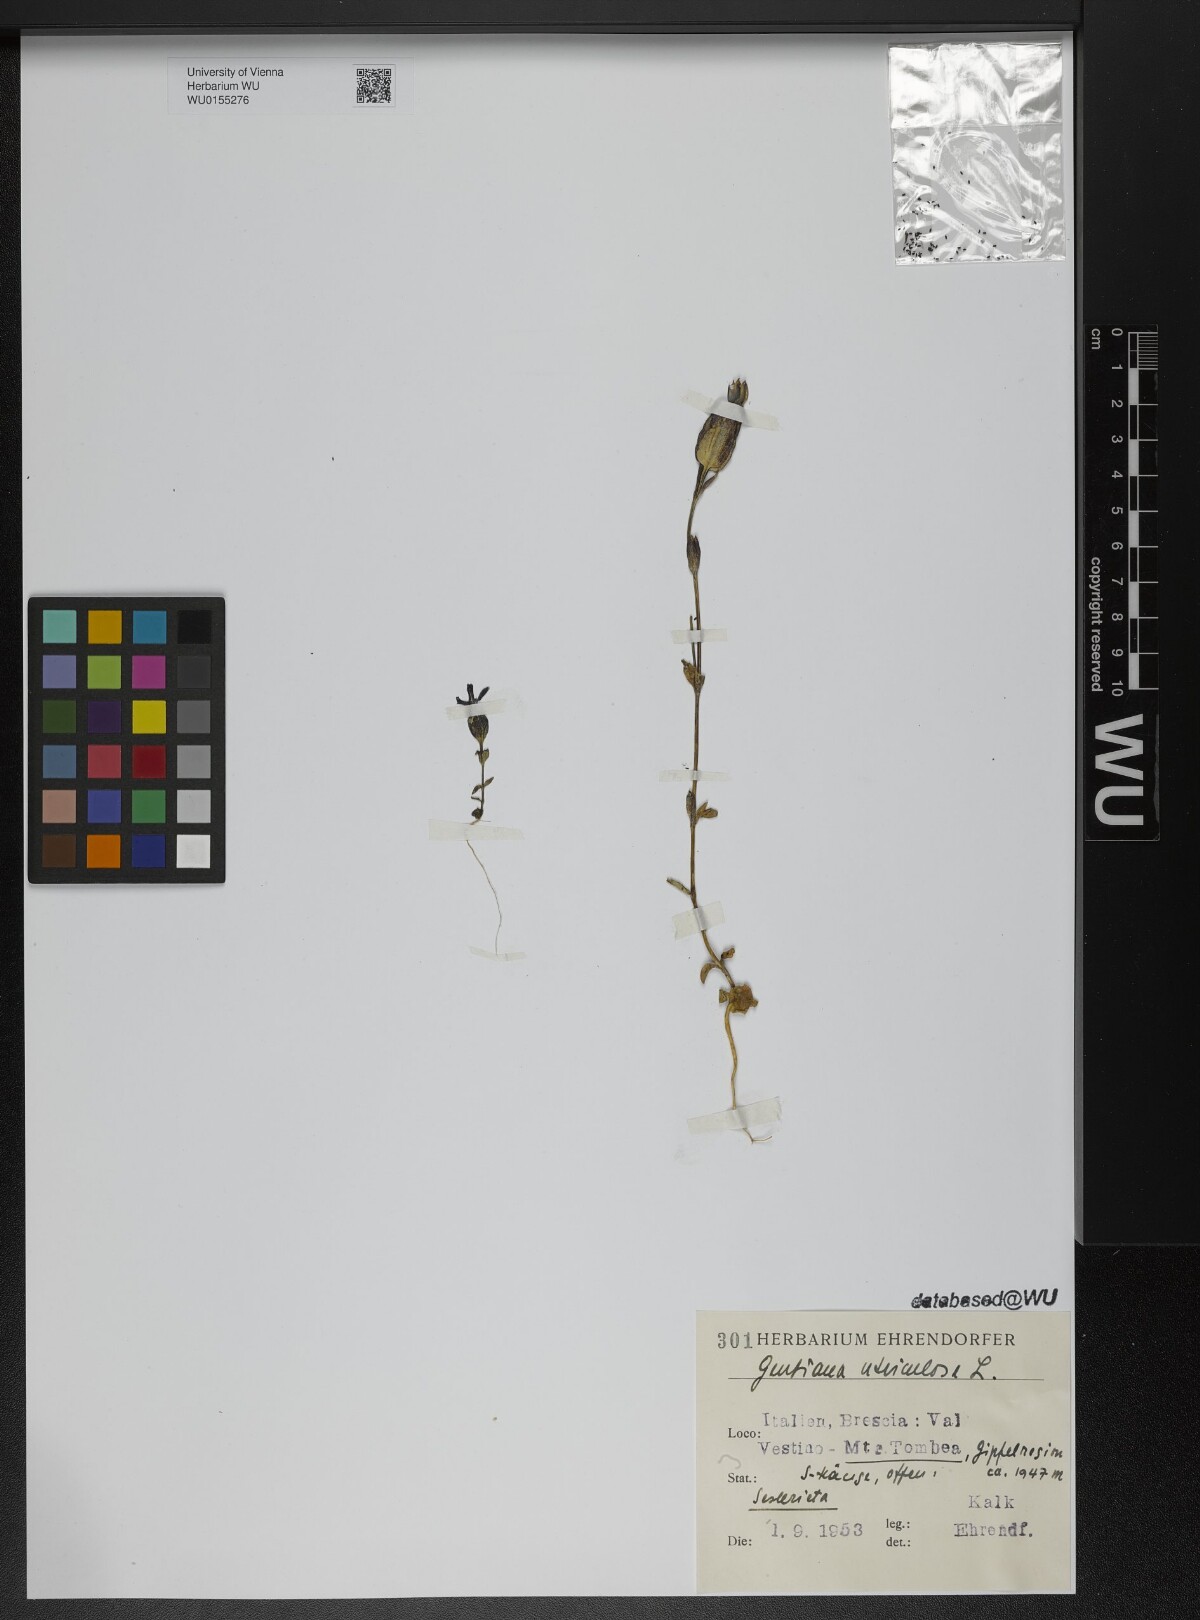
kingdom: Plantae
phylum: Tracheophyta
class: Magnoliopsida
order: Gentianales
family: Gentianaceae
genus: Gentiana
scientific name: Gentiana utriculosa
